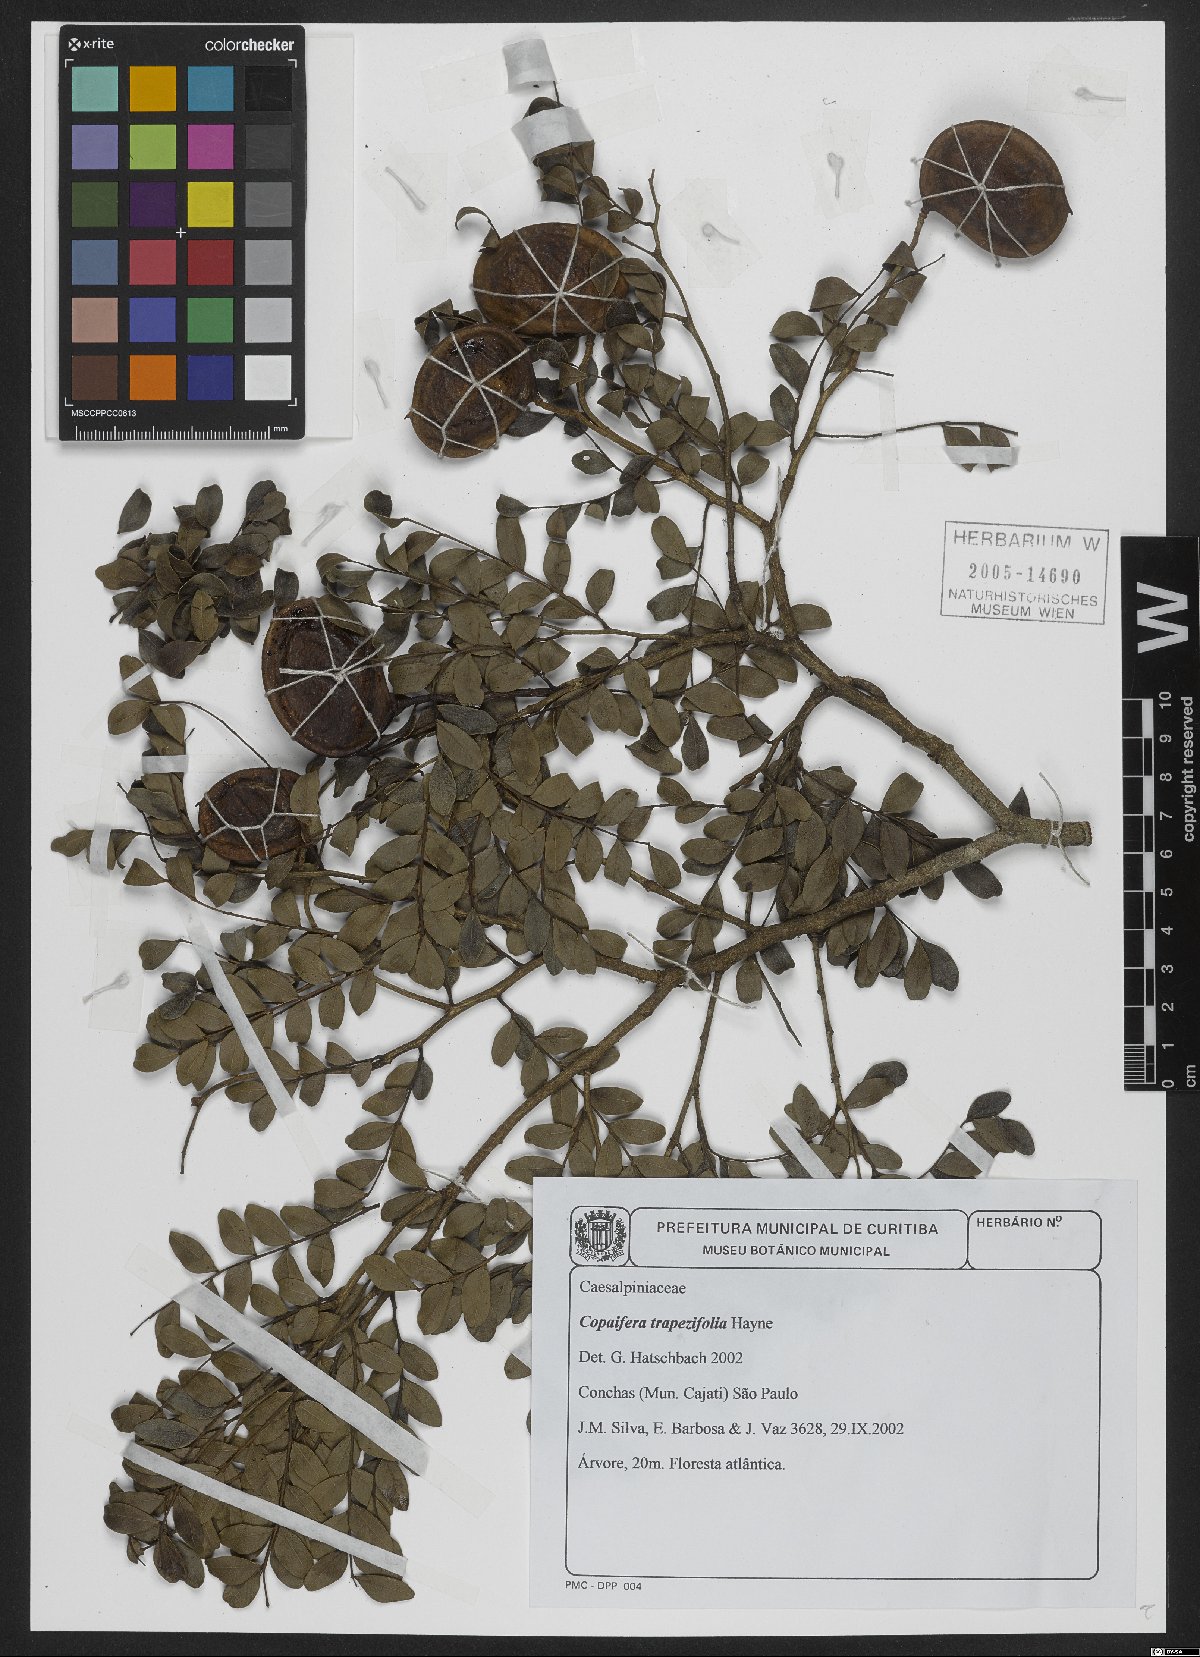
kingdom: Plantae
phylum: Tracheophyta
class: Magnoliopsida
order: Fabales
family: Fabaceae
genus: Copaifera
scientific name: Copaifera trapezifolia
